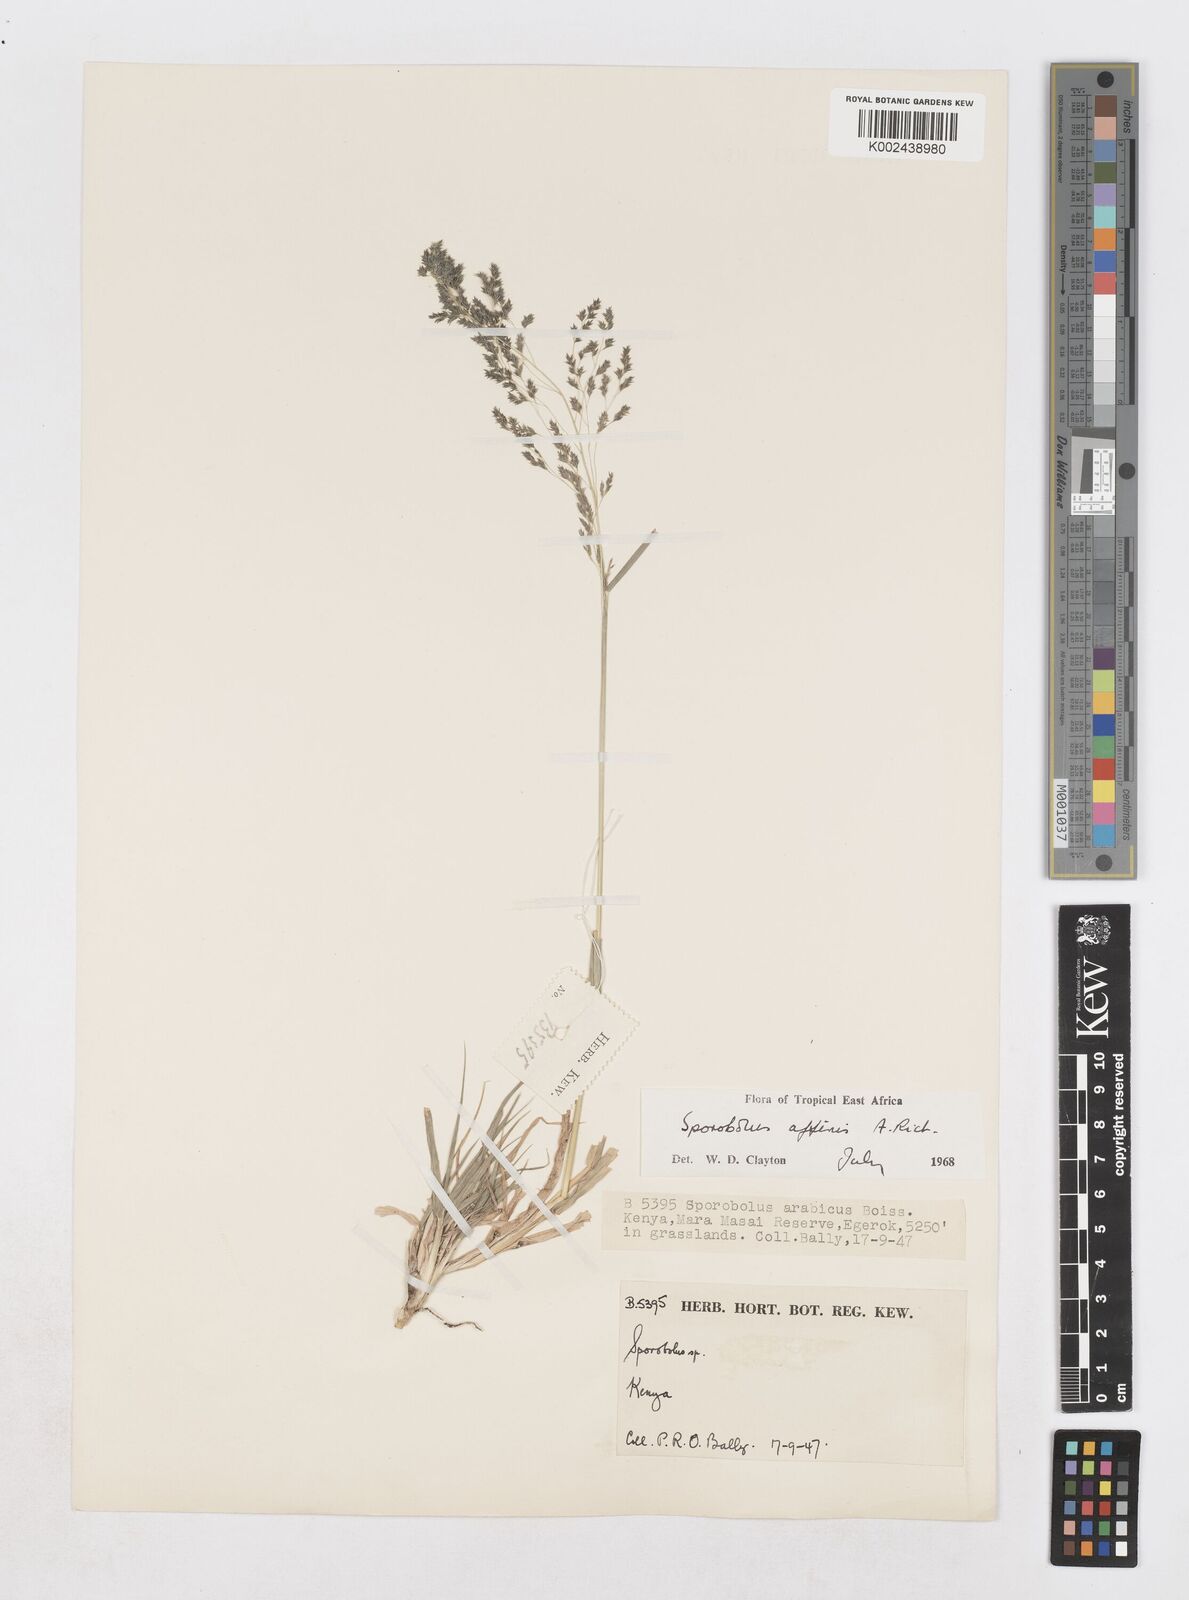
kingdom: Plantae
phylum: Tracheophyta
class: Liliopsida
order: Poales
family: Poaceae
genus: Sporobolus
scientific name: Sporobolus confinis
